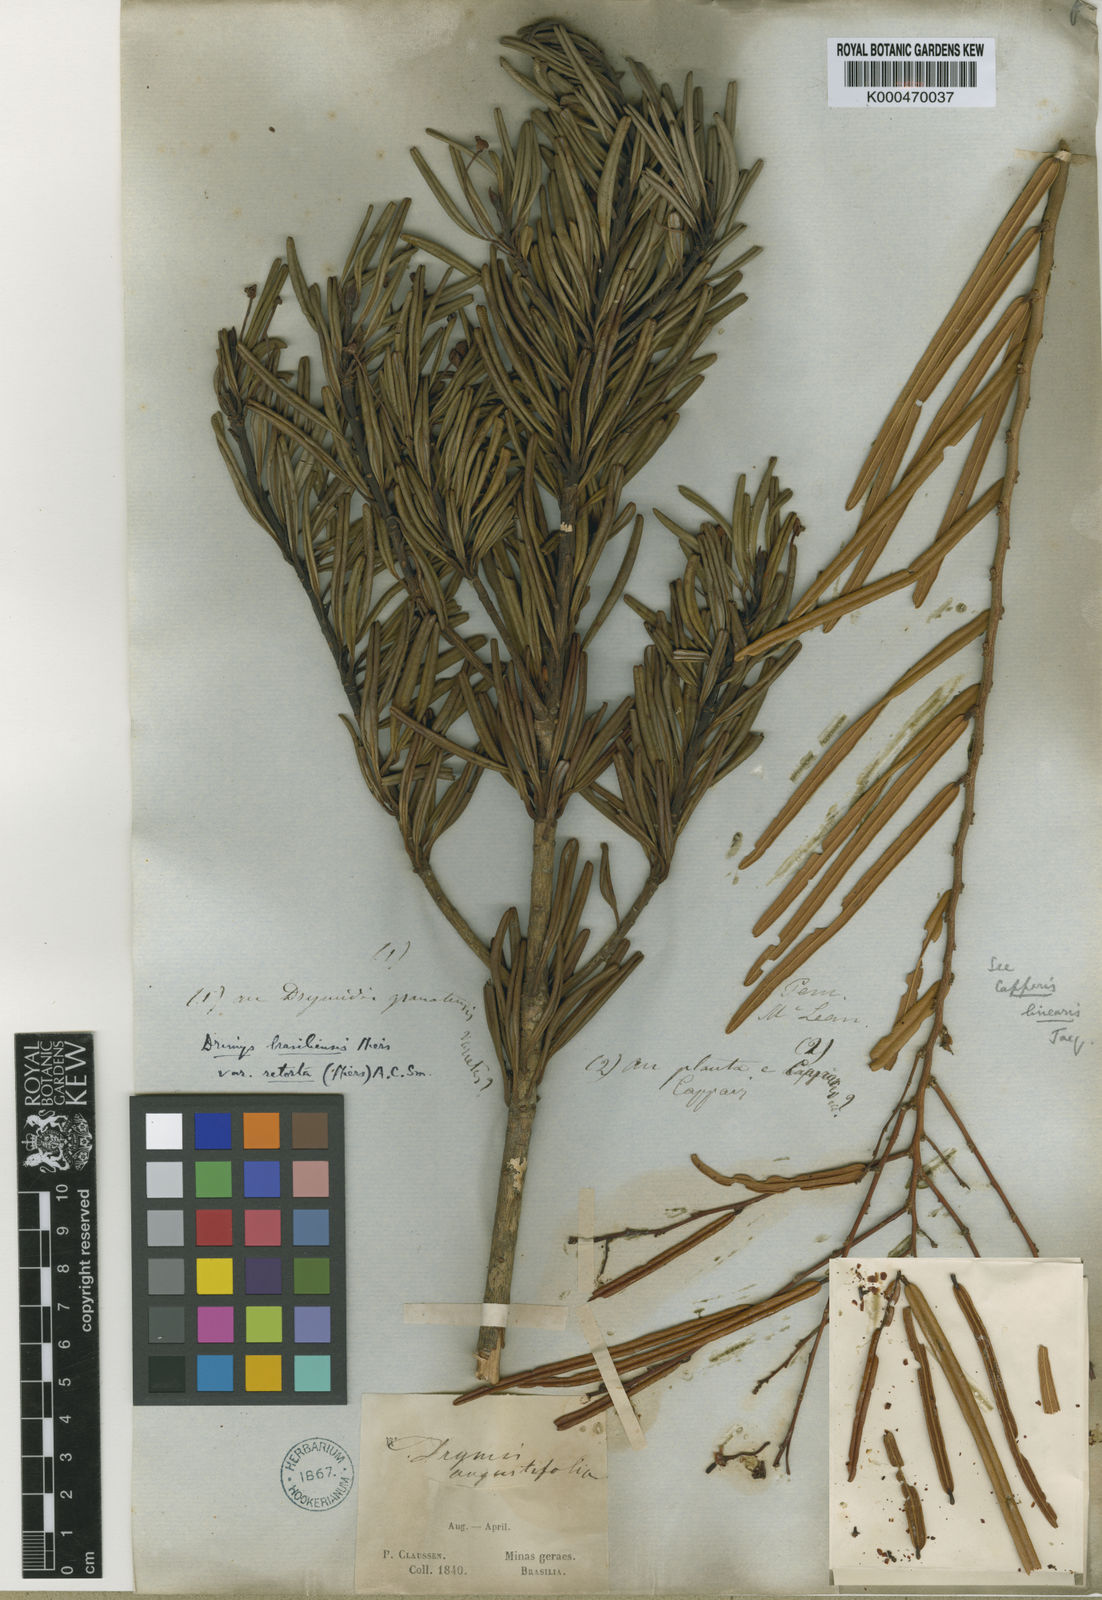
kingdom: Plantae
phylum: Tracheophyta
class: Magnoliopsida
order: Brassicales
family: Capparaceae
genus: Cynophalla
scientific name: Cynophalla linearis
